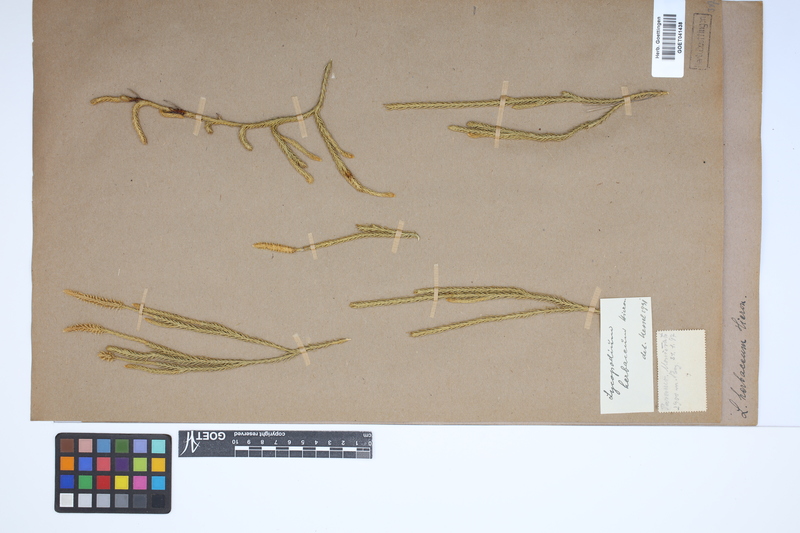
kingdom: Plantae
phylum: Tracheophyta
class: Lycopodiopsida
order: Lycopodiales
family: Lycopodiaceae
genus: Lycopodium
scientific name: Lycopodium clavatum
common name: Stag's-horn clubmoss
